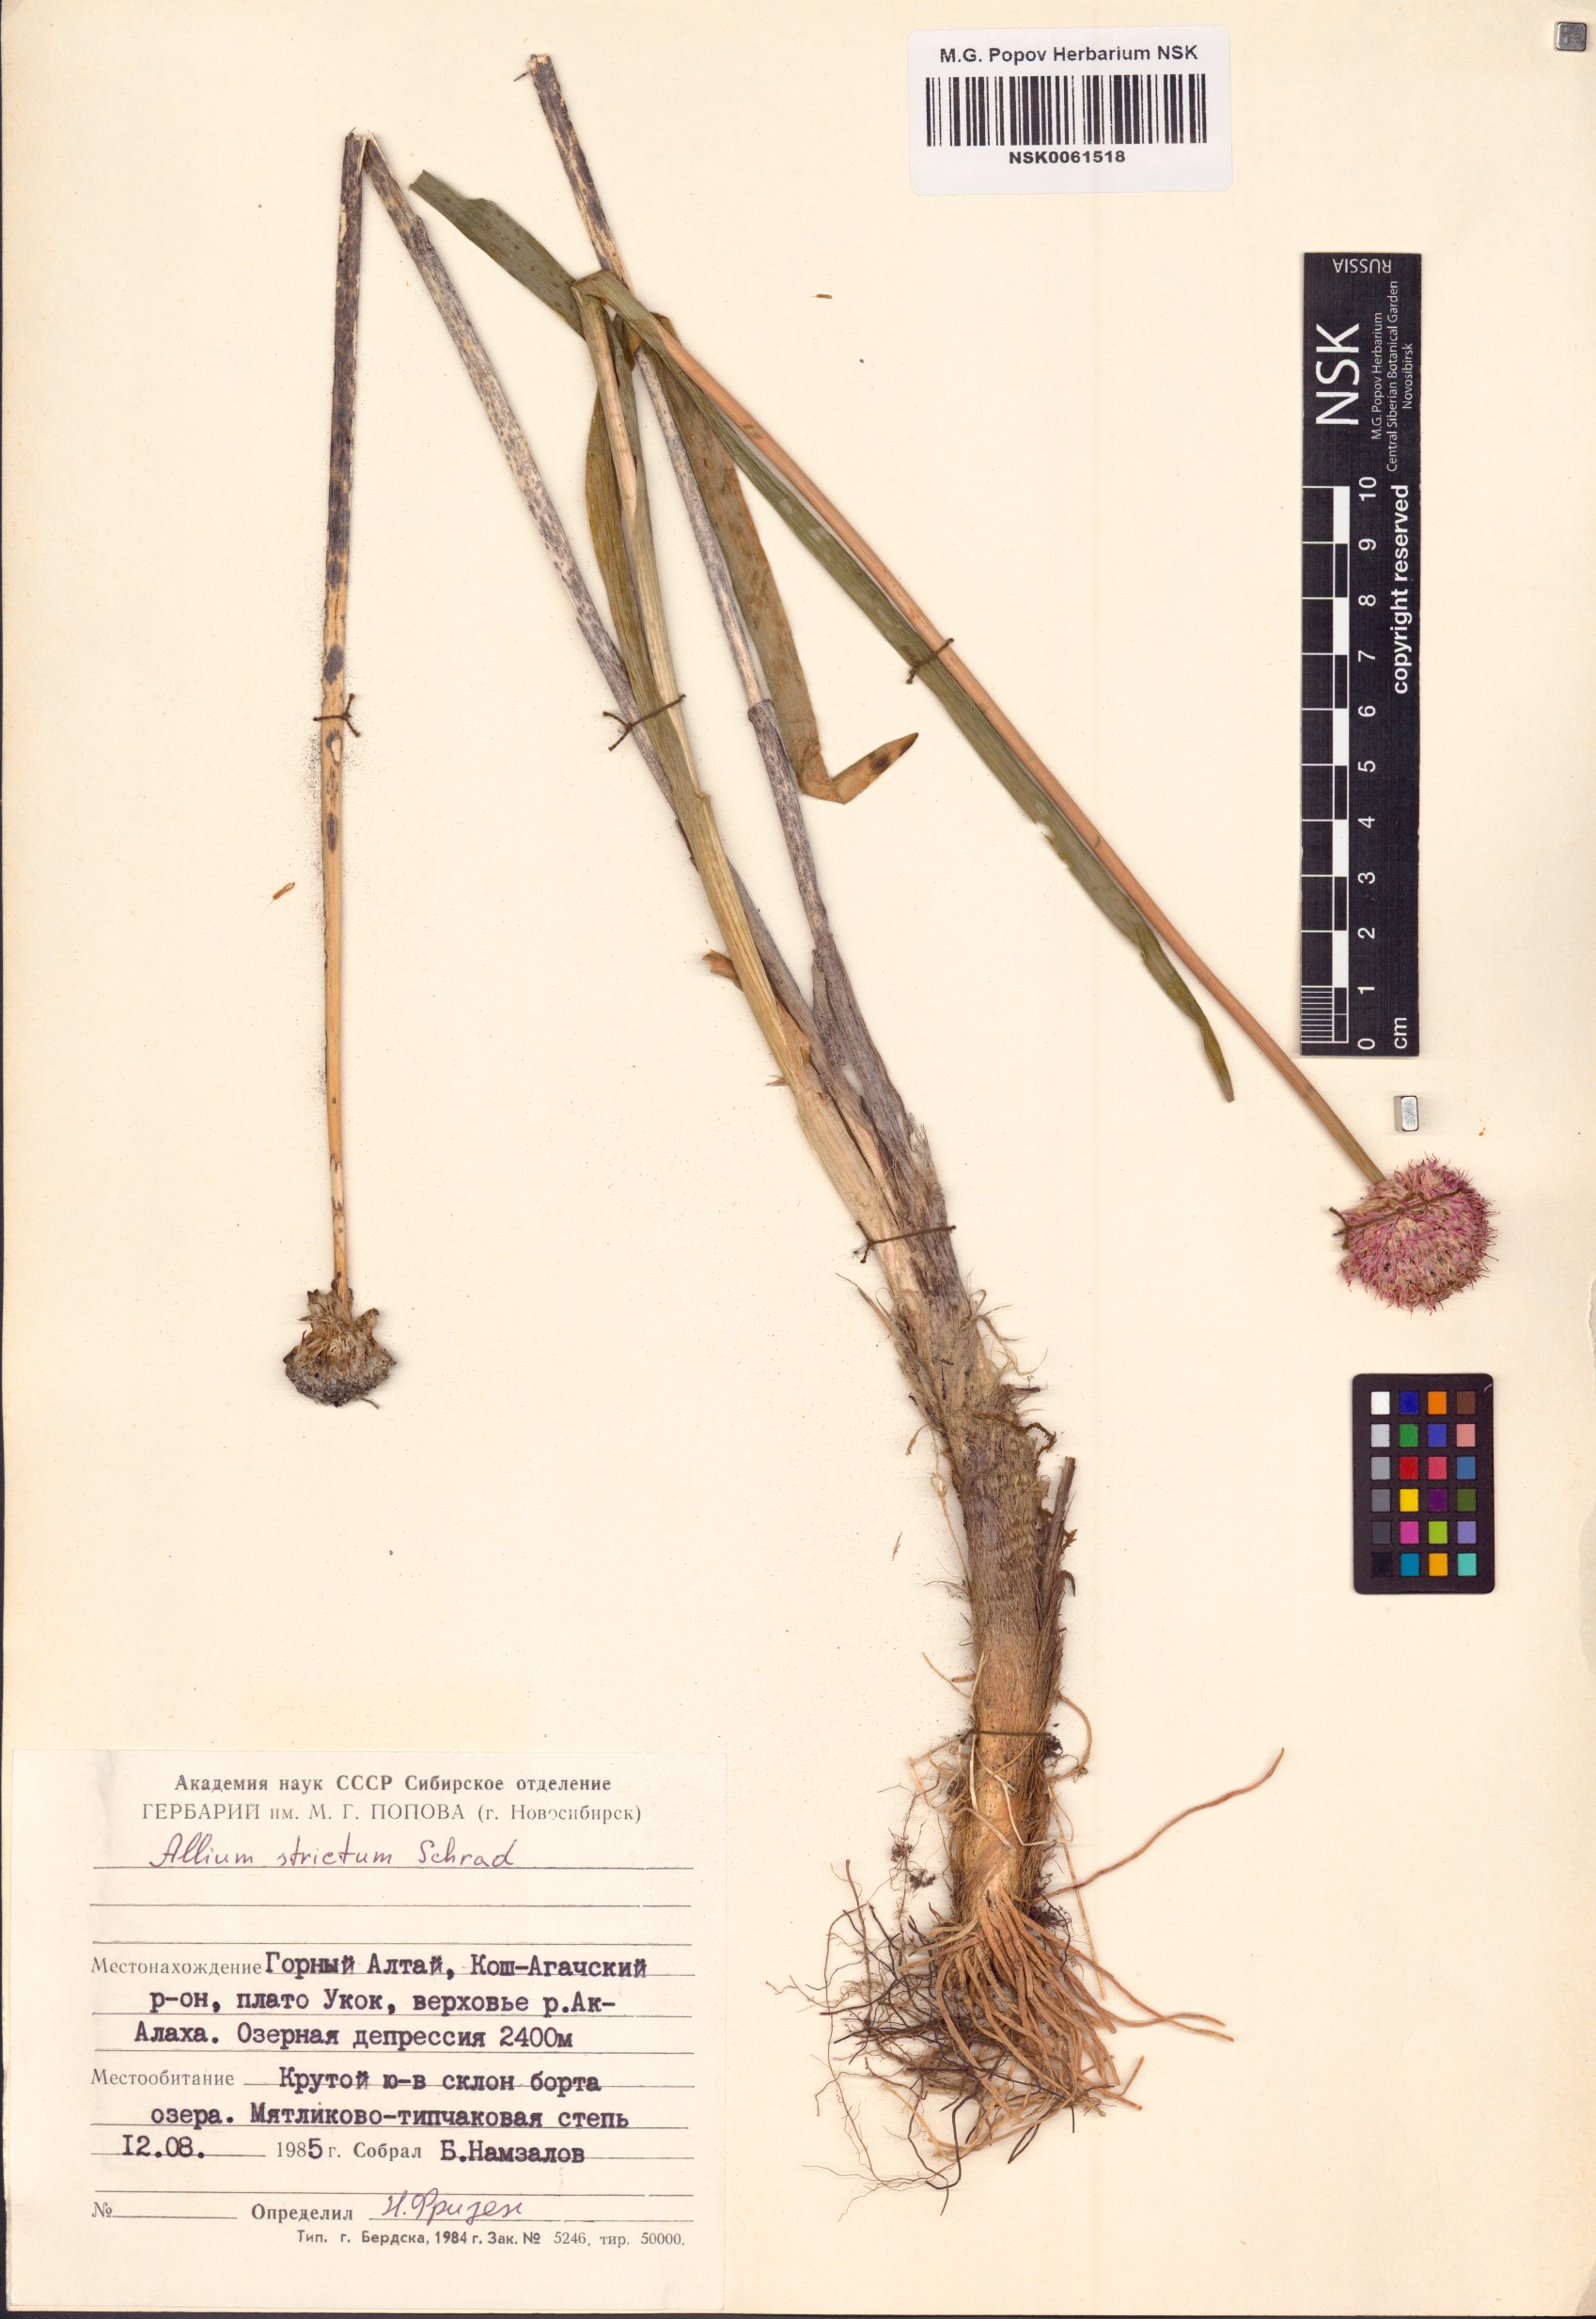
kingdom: Plantae
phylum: Tracheophyta
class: Liliopsida
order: Asparagales
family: Amaryllidaceae
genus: Allium
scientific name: Allium strictum
